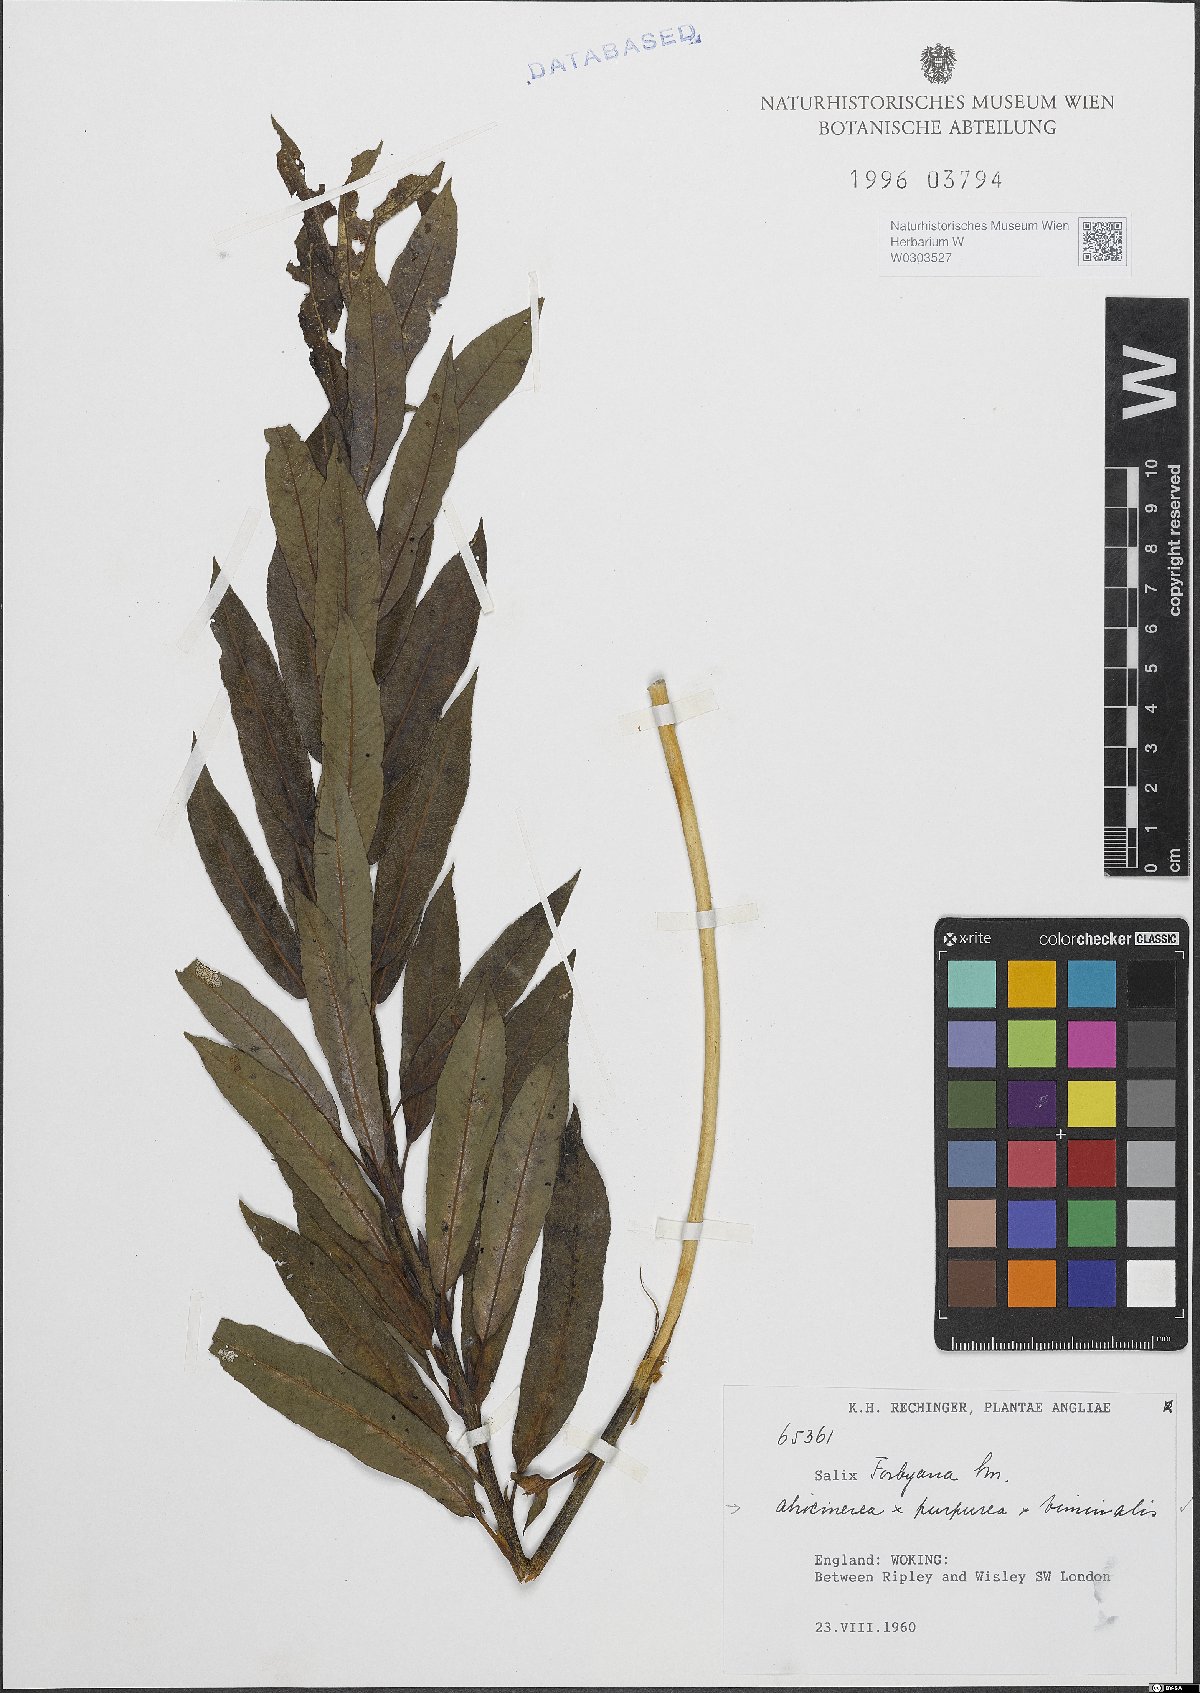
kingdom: Plantae
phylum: Tracheophyta
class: Magnoliopsida
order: Malpighiales
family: Salicaceae
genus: Salix
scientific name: Salix
